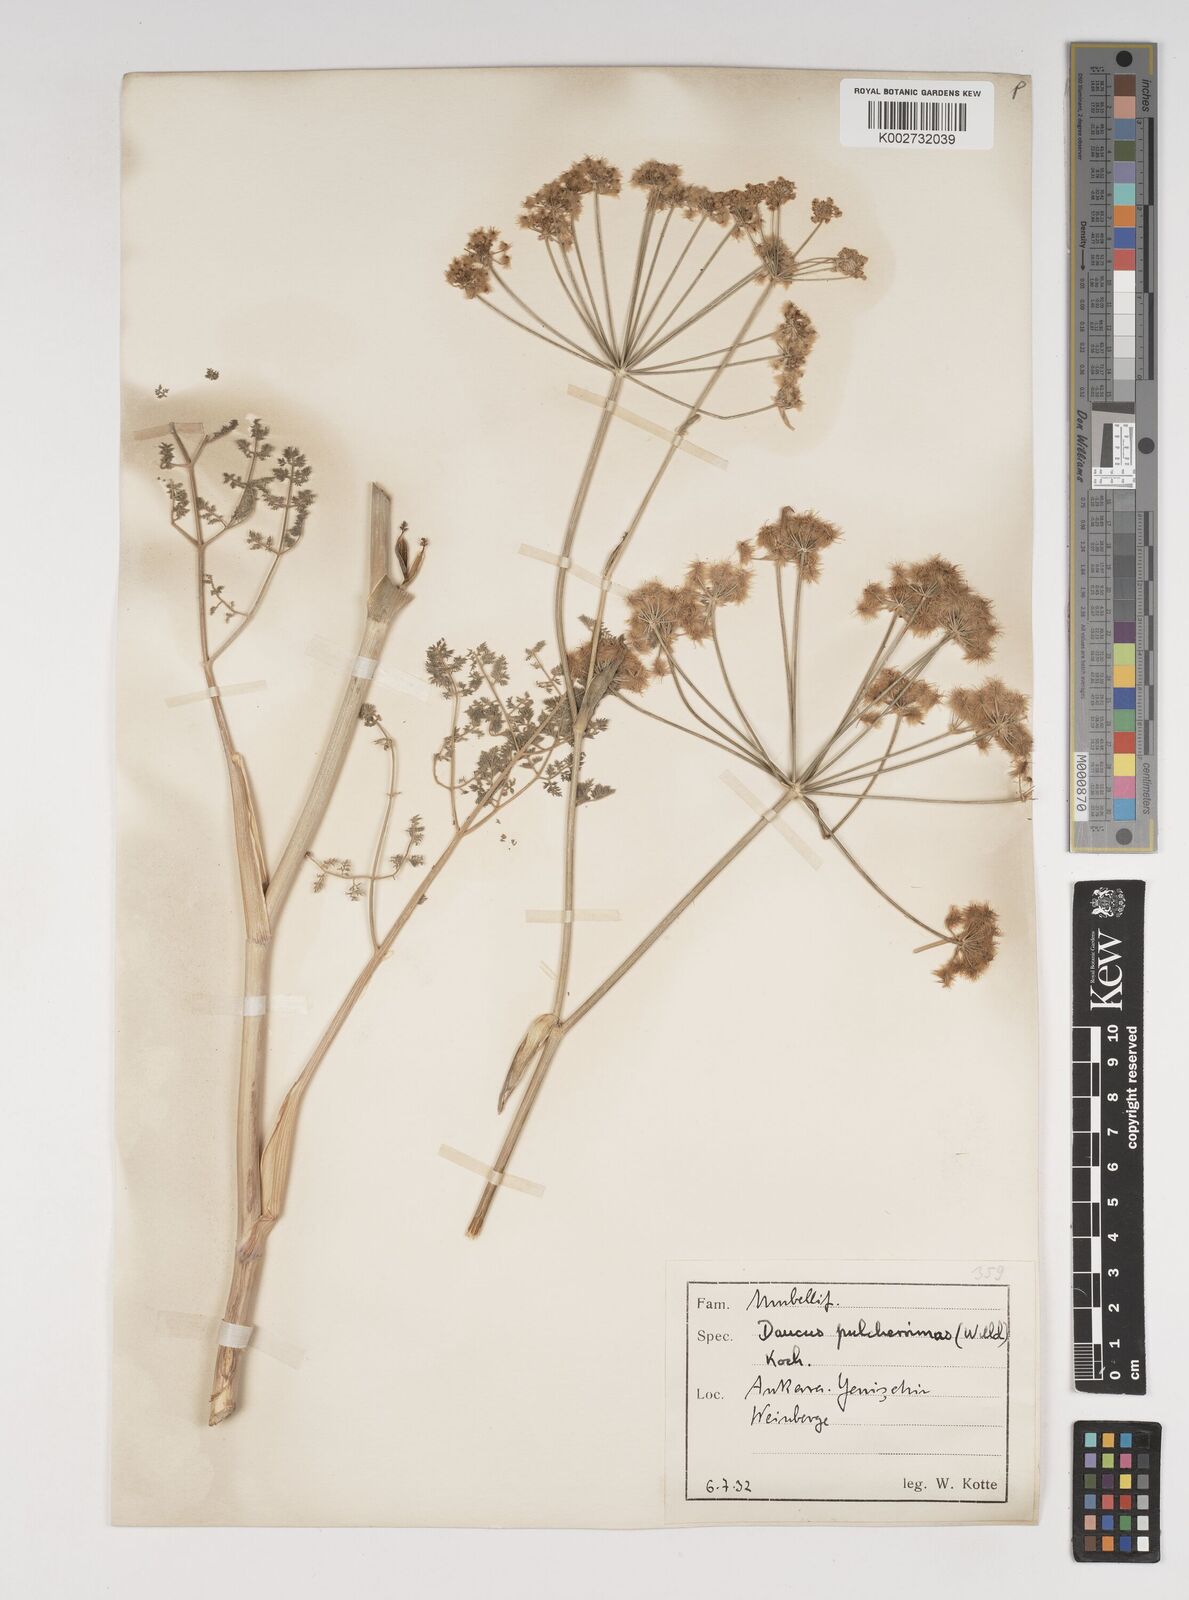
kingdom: Plantae
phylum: Tracheophyta
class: Magnoliopsida
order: Apiales
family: Apiaceae
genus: Astrodaucus
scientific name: Astrodaucus
